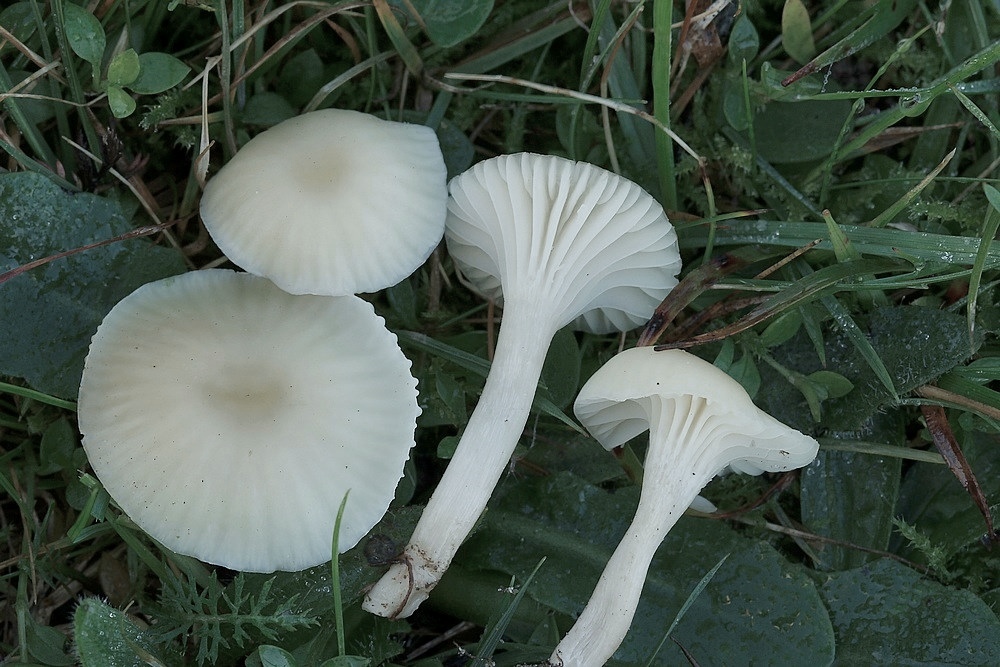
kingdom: Fungi
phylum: Basidiomycota
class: Agaricomycetes
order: Agaricales
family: Hygrophoraceae
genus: Cuphophyllus
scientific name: Cuphophyllus russocoriaceus
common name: ruslæder-vokshat
